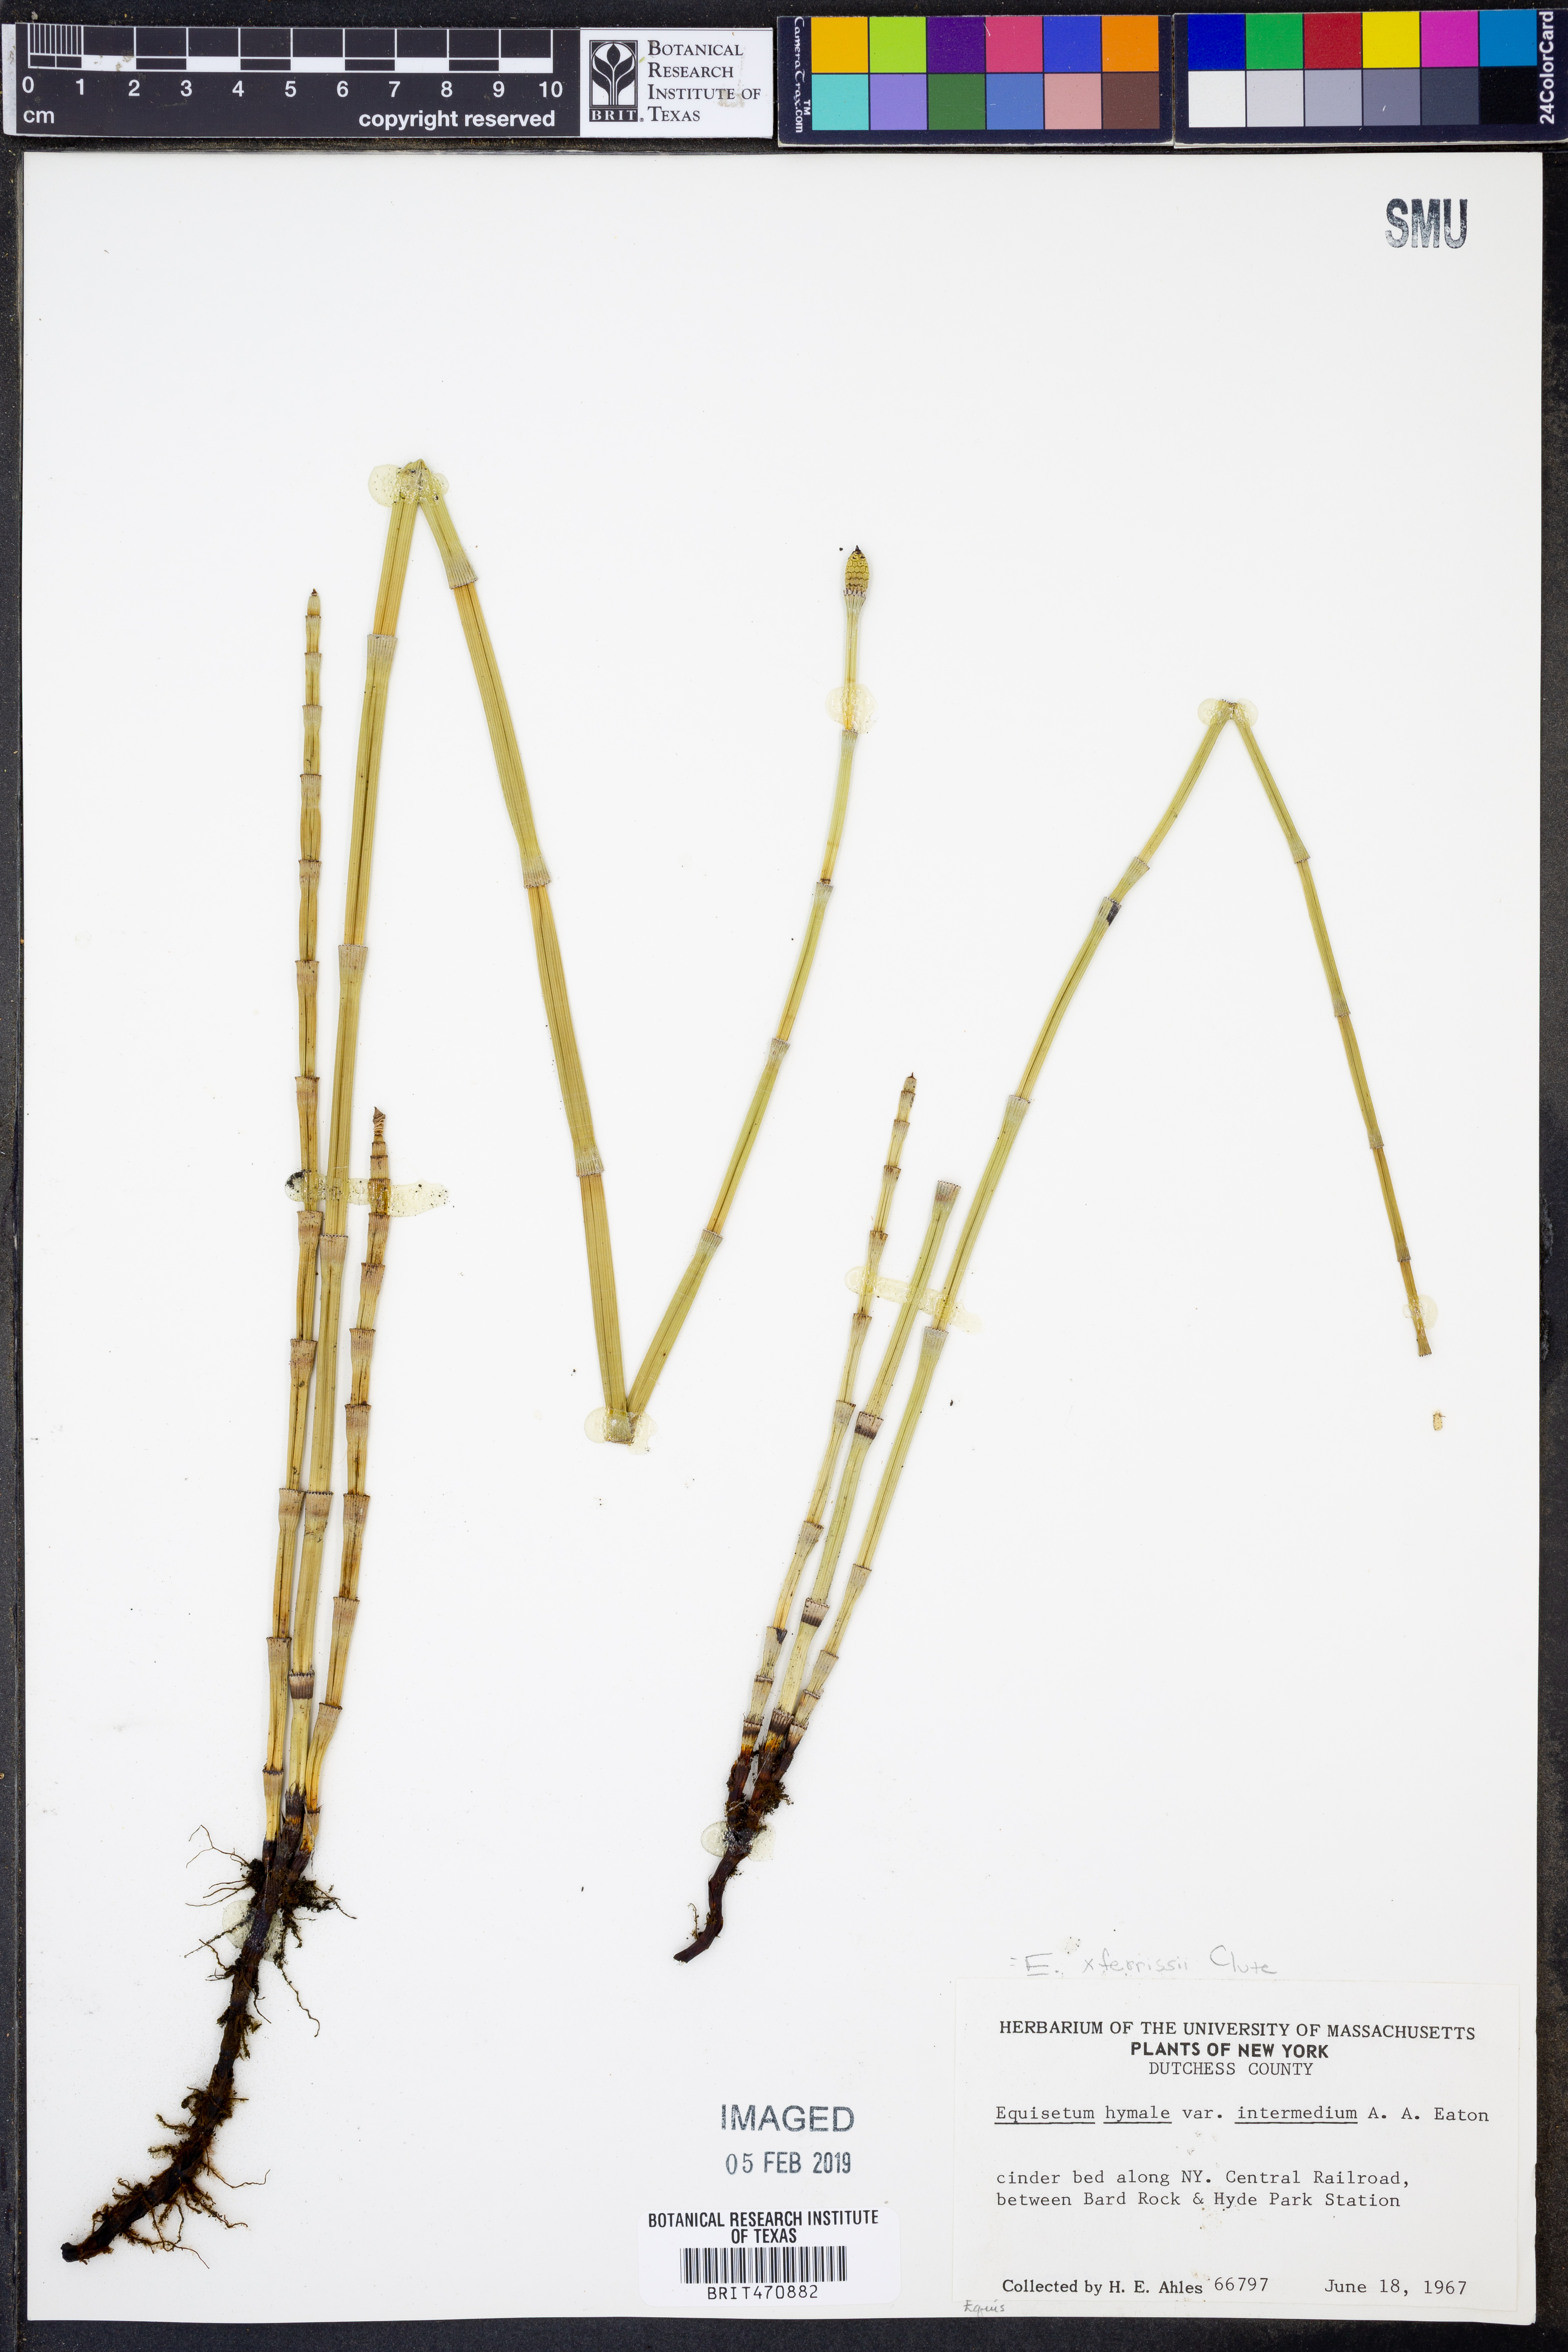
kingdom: Plantae
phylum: Tracheophyta
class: Polypodiopsida
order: Equisetales
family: Equisetaceae
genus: Equisetum
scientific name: Equisetum ferrissii
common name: Ferriss' horsetail
